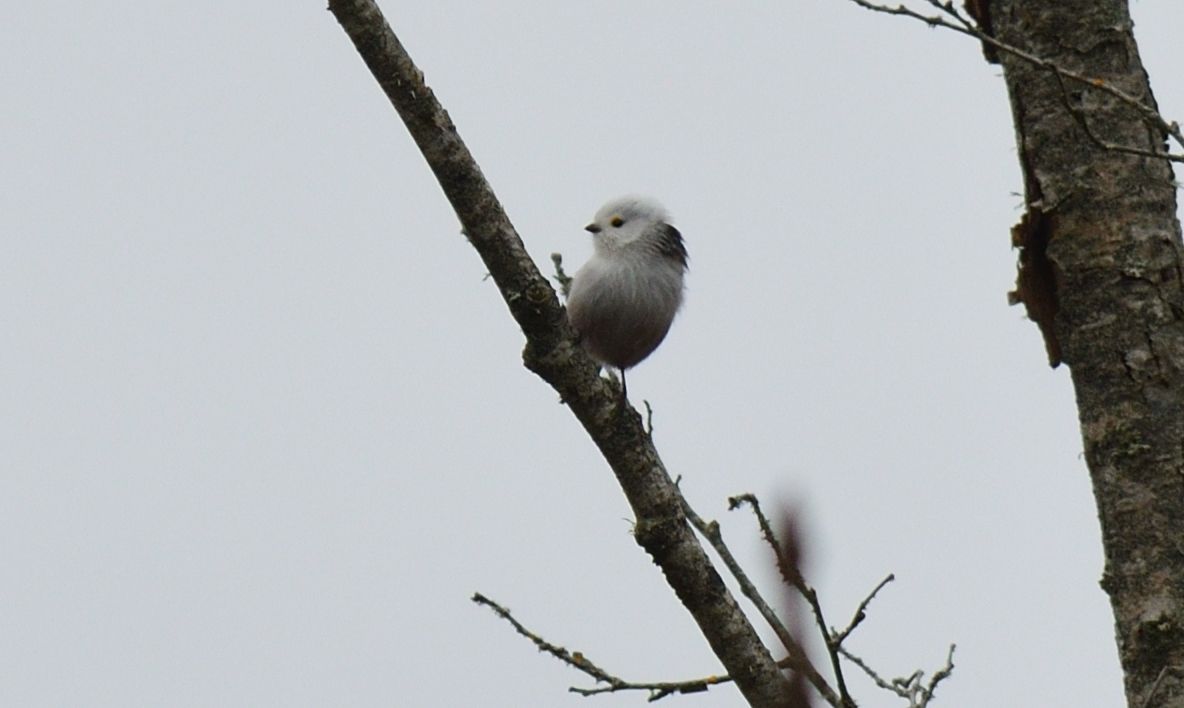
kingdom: Animalia
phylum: Chordata
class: Aves
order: Passeriformes
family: Aegithalidae
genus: Aegithalos
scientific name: Aegithalos caudatus
